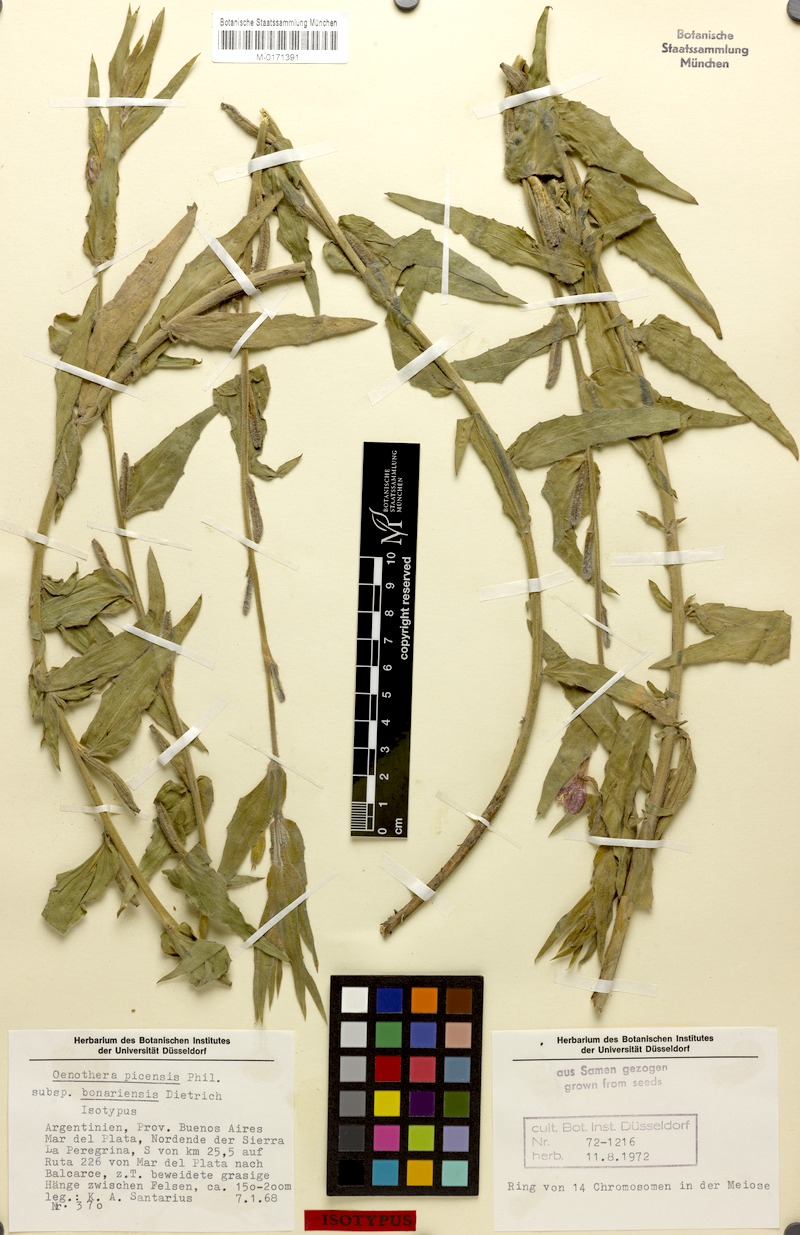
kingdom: Plantae
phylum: Tracheophyta
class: Magnoliopsida
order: Myrtales
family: Onagraceae
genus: Oenothera
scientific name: Oenothera picensis
